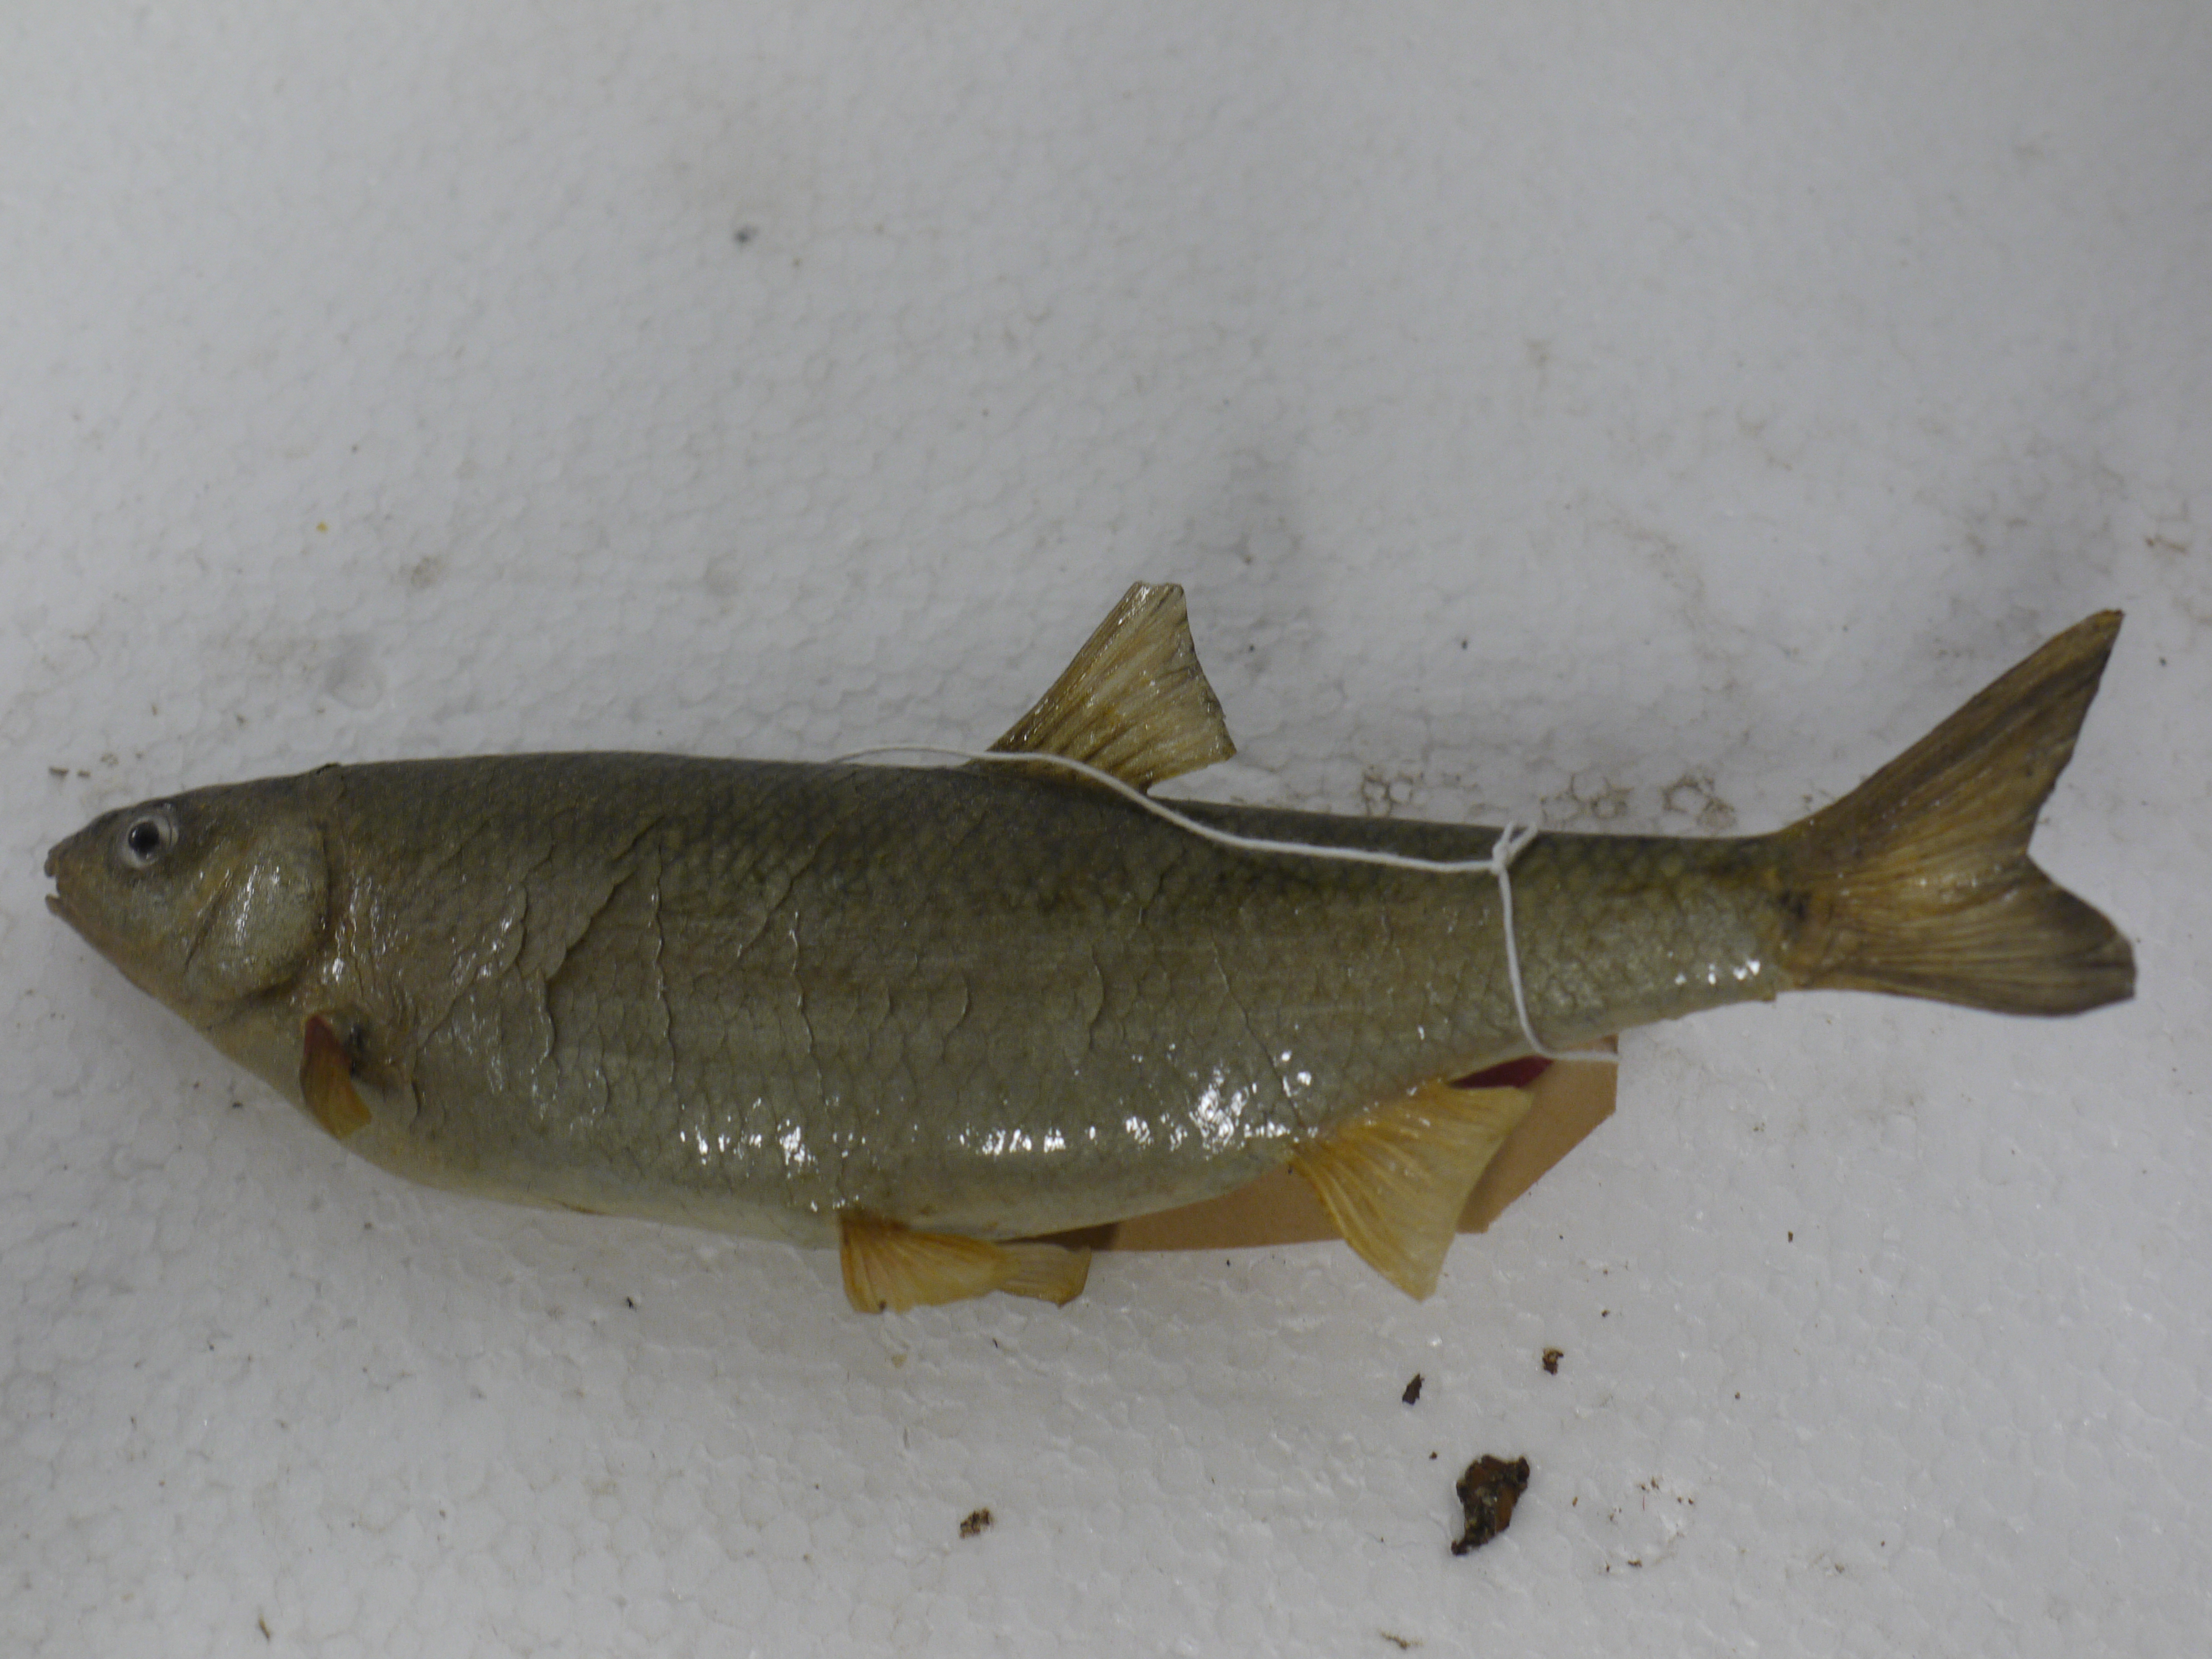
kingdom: Animalia
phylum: Chordata
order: Cypriniformes
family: Cyprinidae
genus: Vimba
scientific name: Vimba vimba
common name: Vimba
